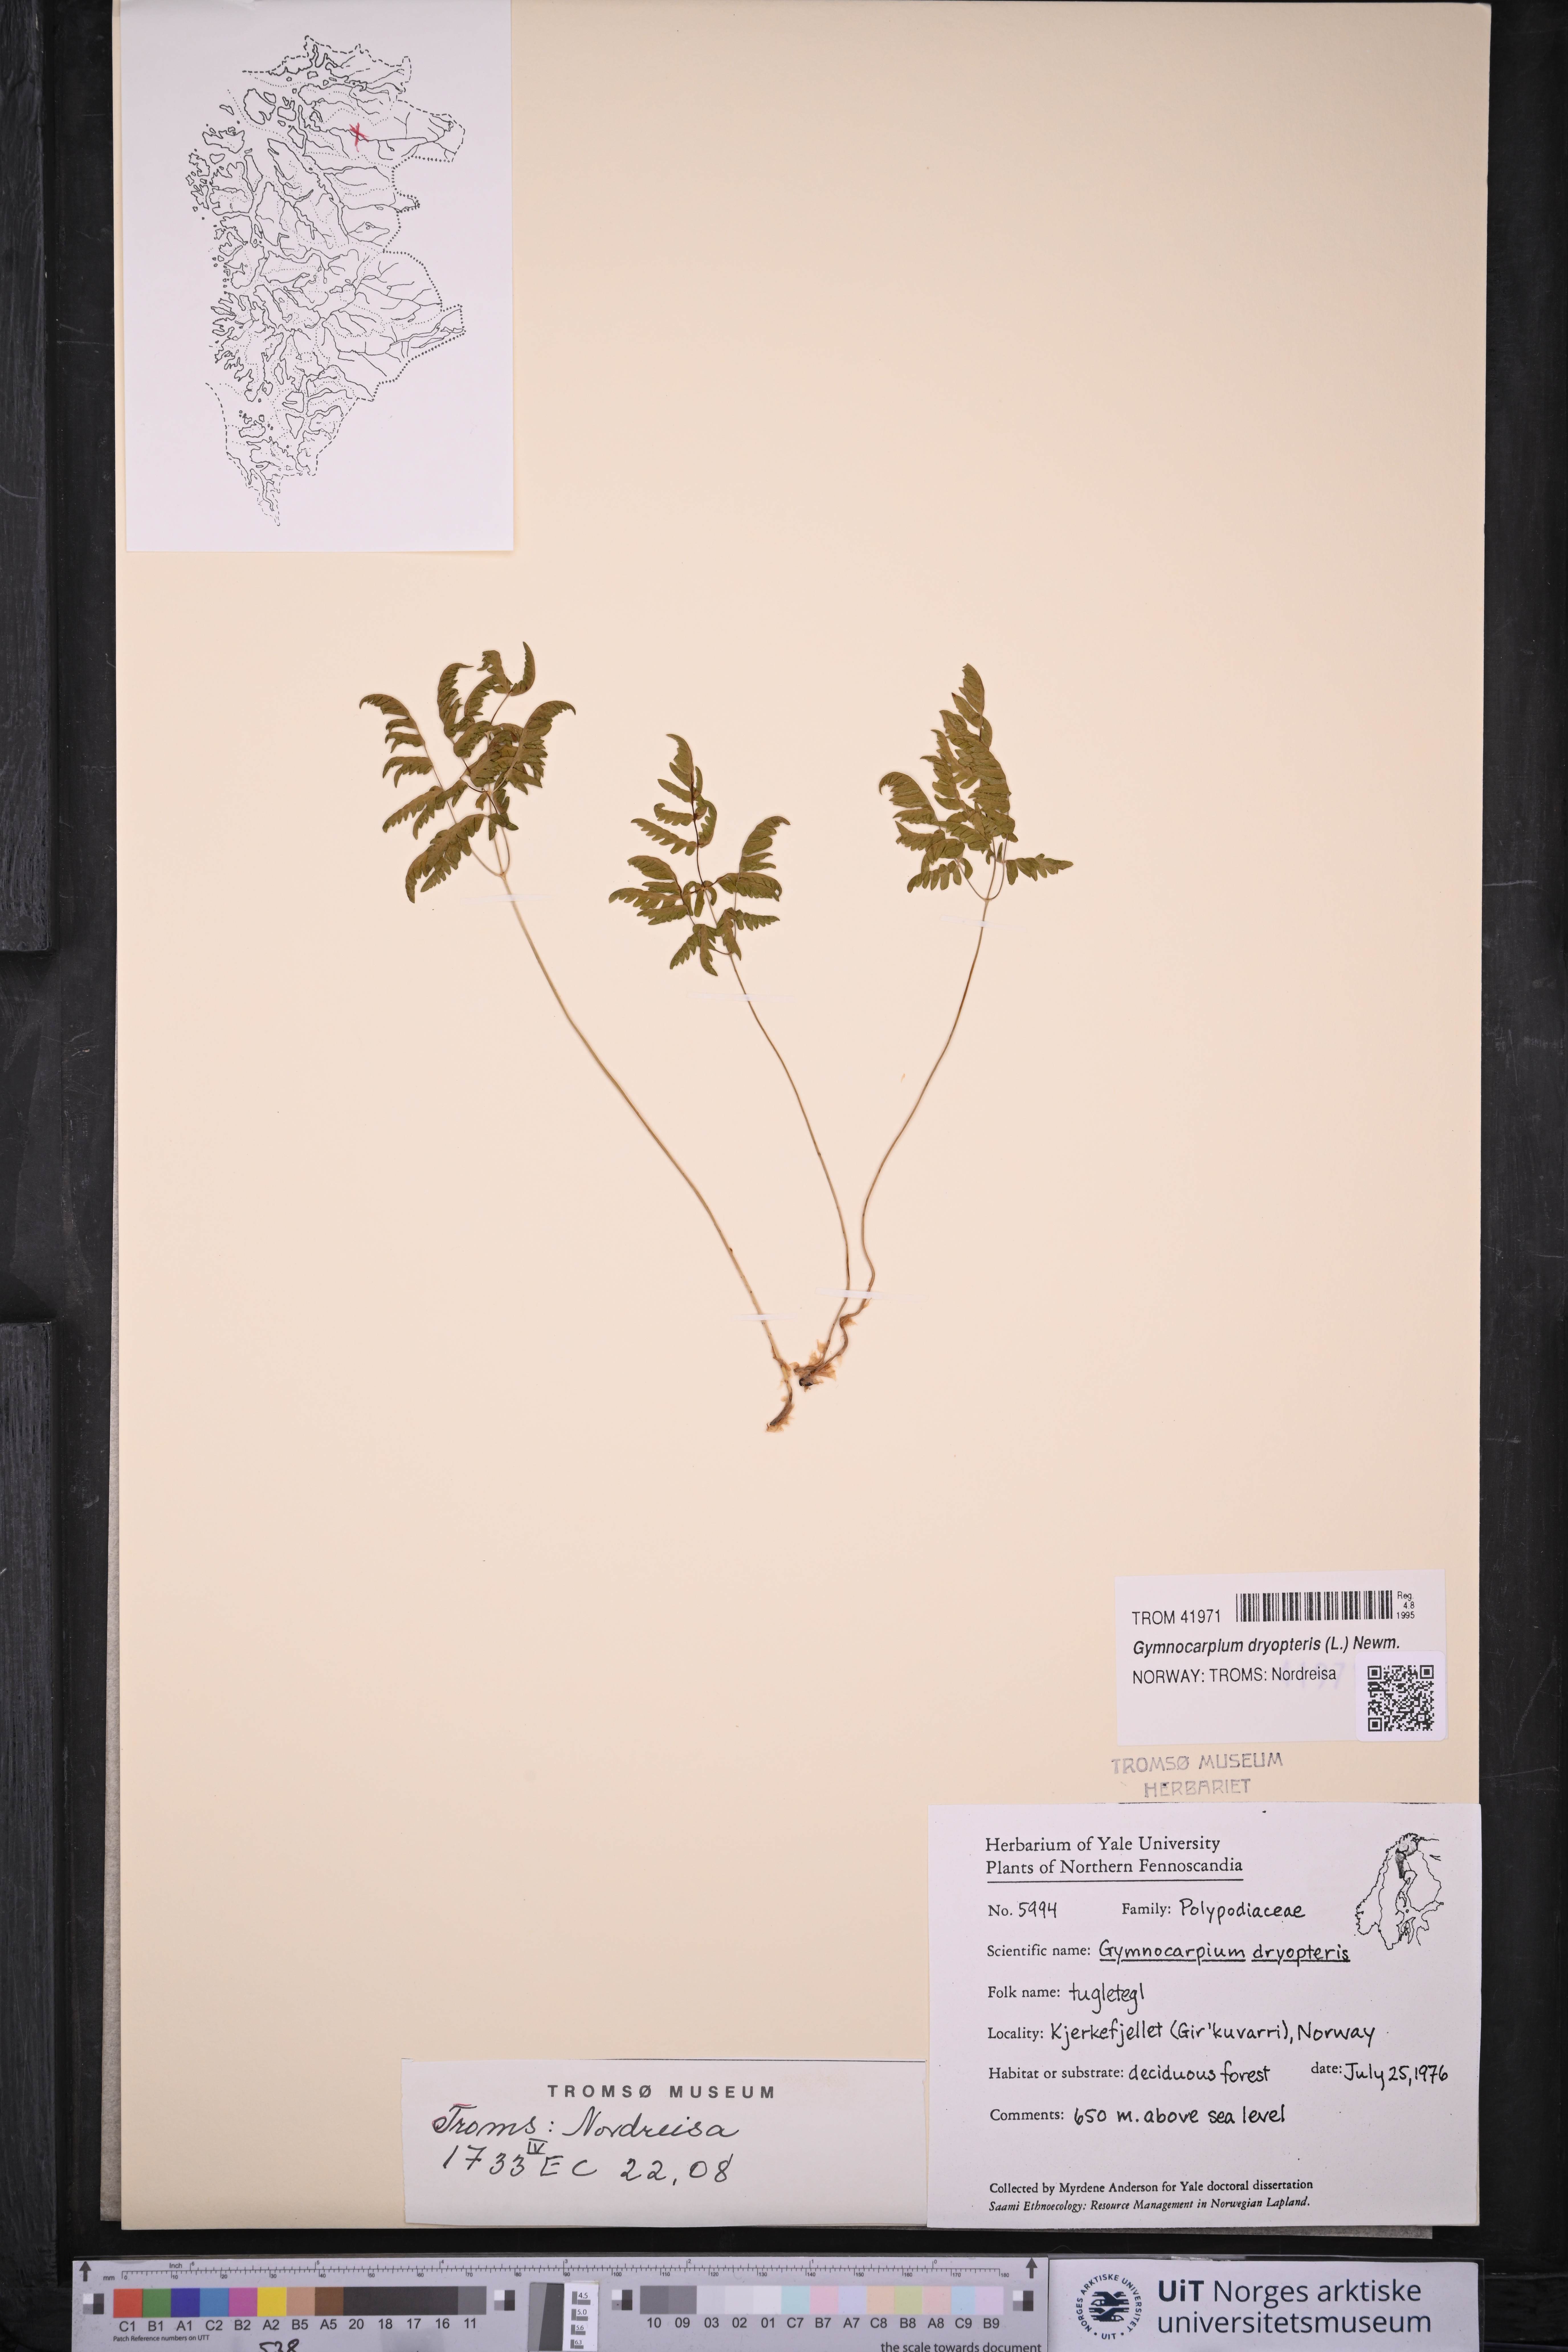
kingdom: Plantae
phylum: Tracheophyta
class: Polypodiopsida
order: Polypodiales
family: Cystopteridaceae
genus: Gymnocarpium
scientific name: Gymnocarpium dryopteris
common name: Oak fern
